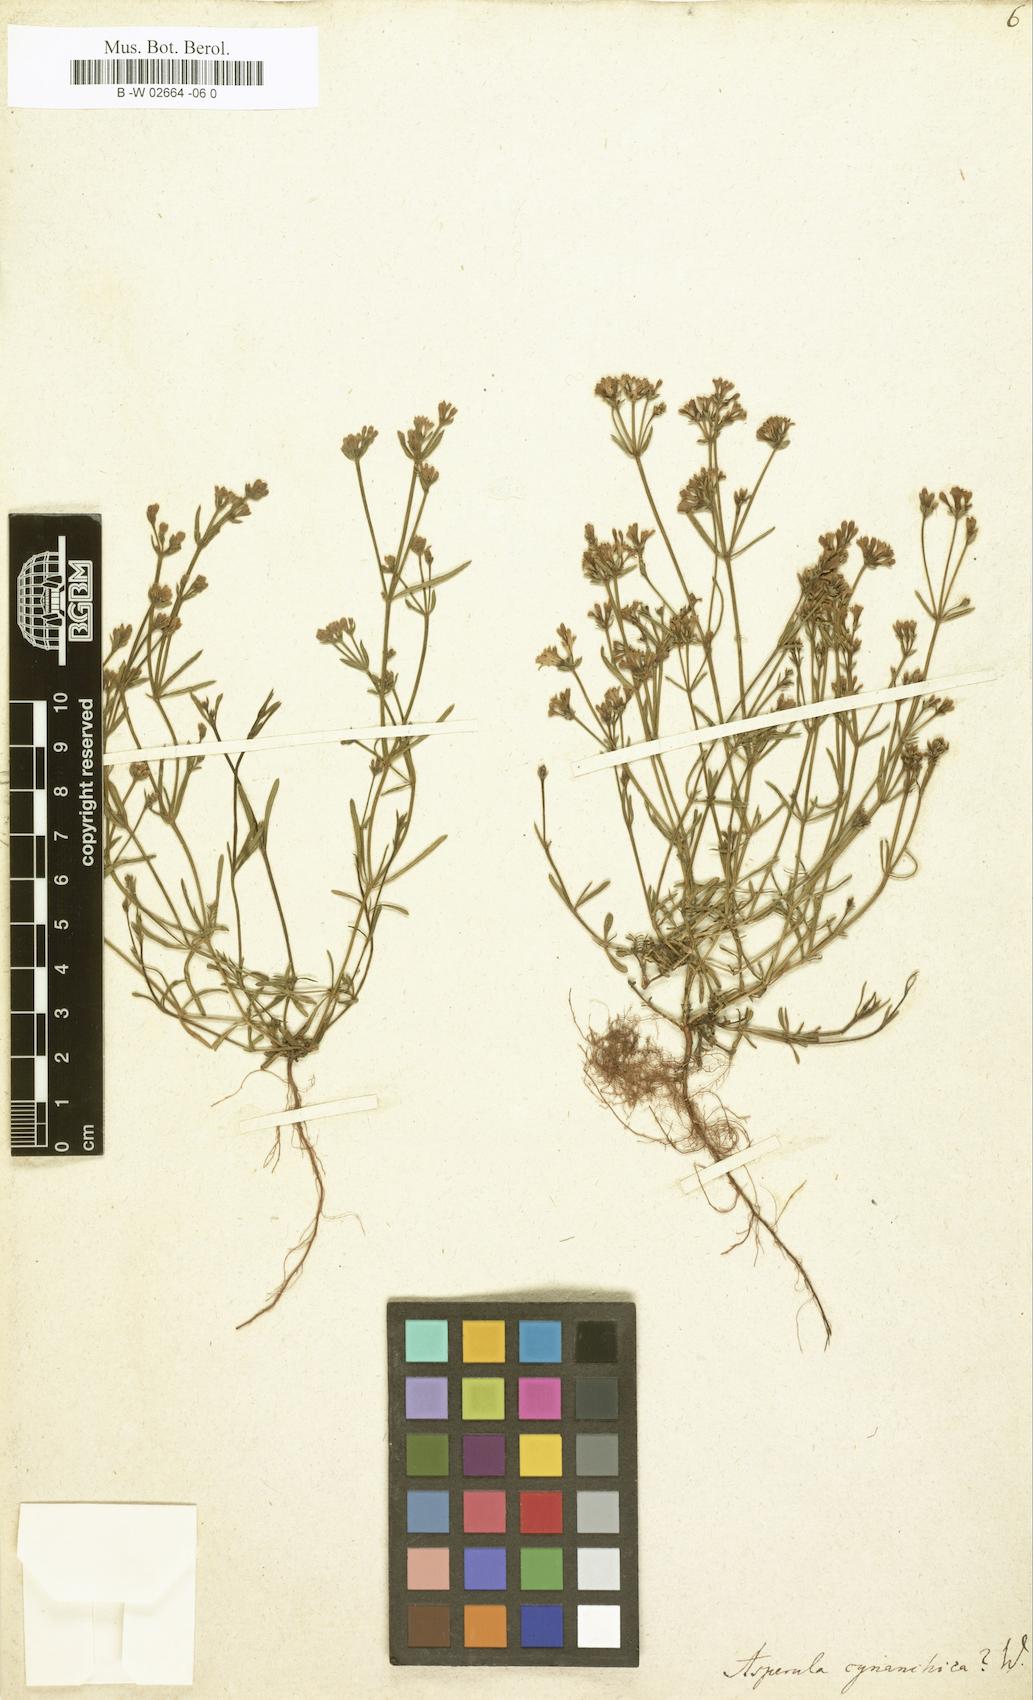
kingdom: Plantae
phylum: Tracheophyta
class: Magnoliopsida
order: Gentianales
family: Rubiaceae
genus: Cynanchica
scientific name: Cynanchica pyrenaica
